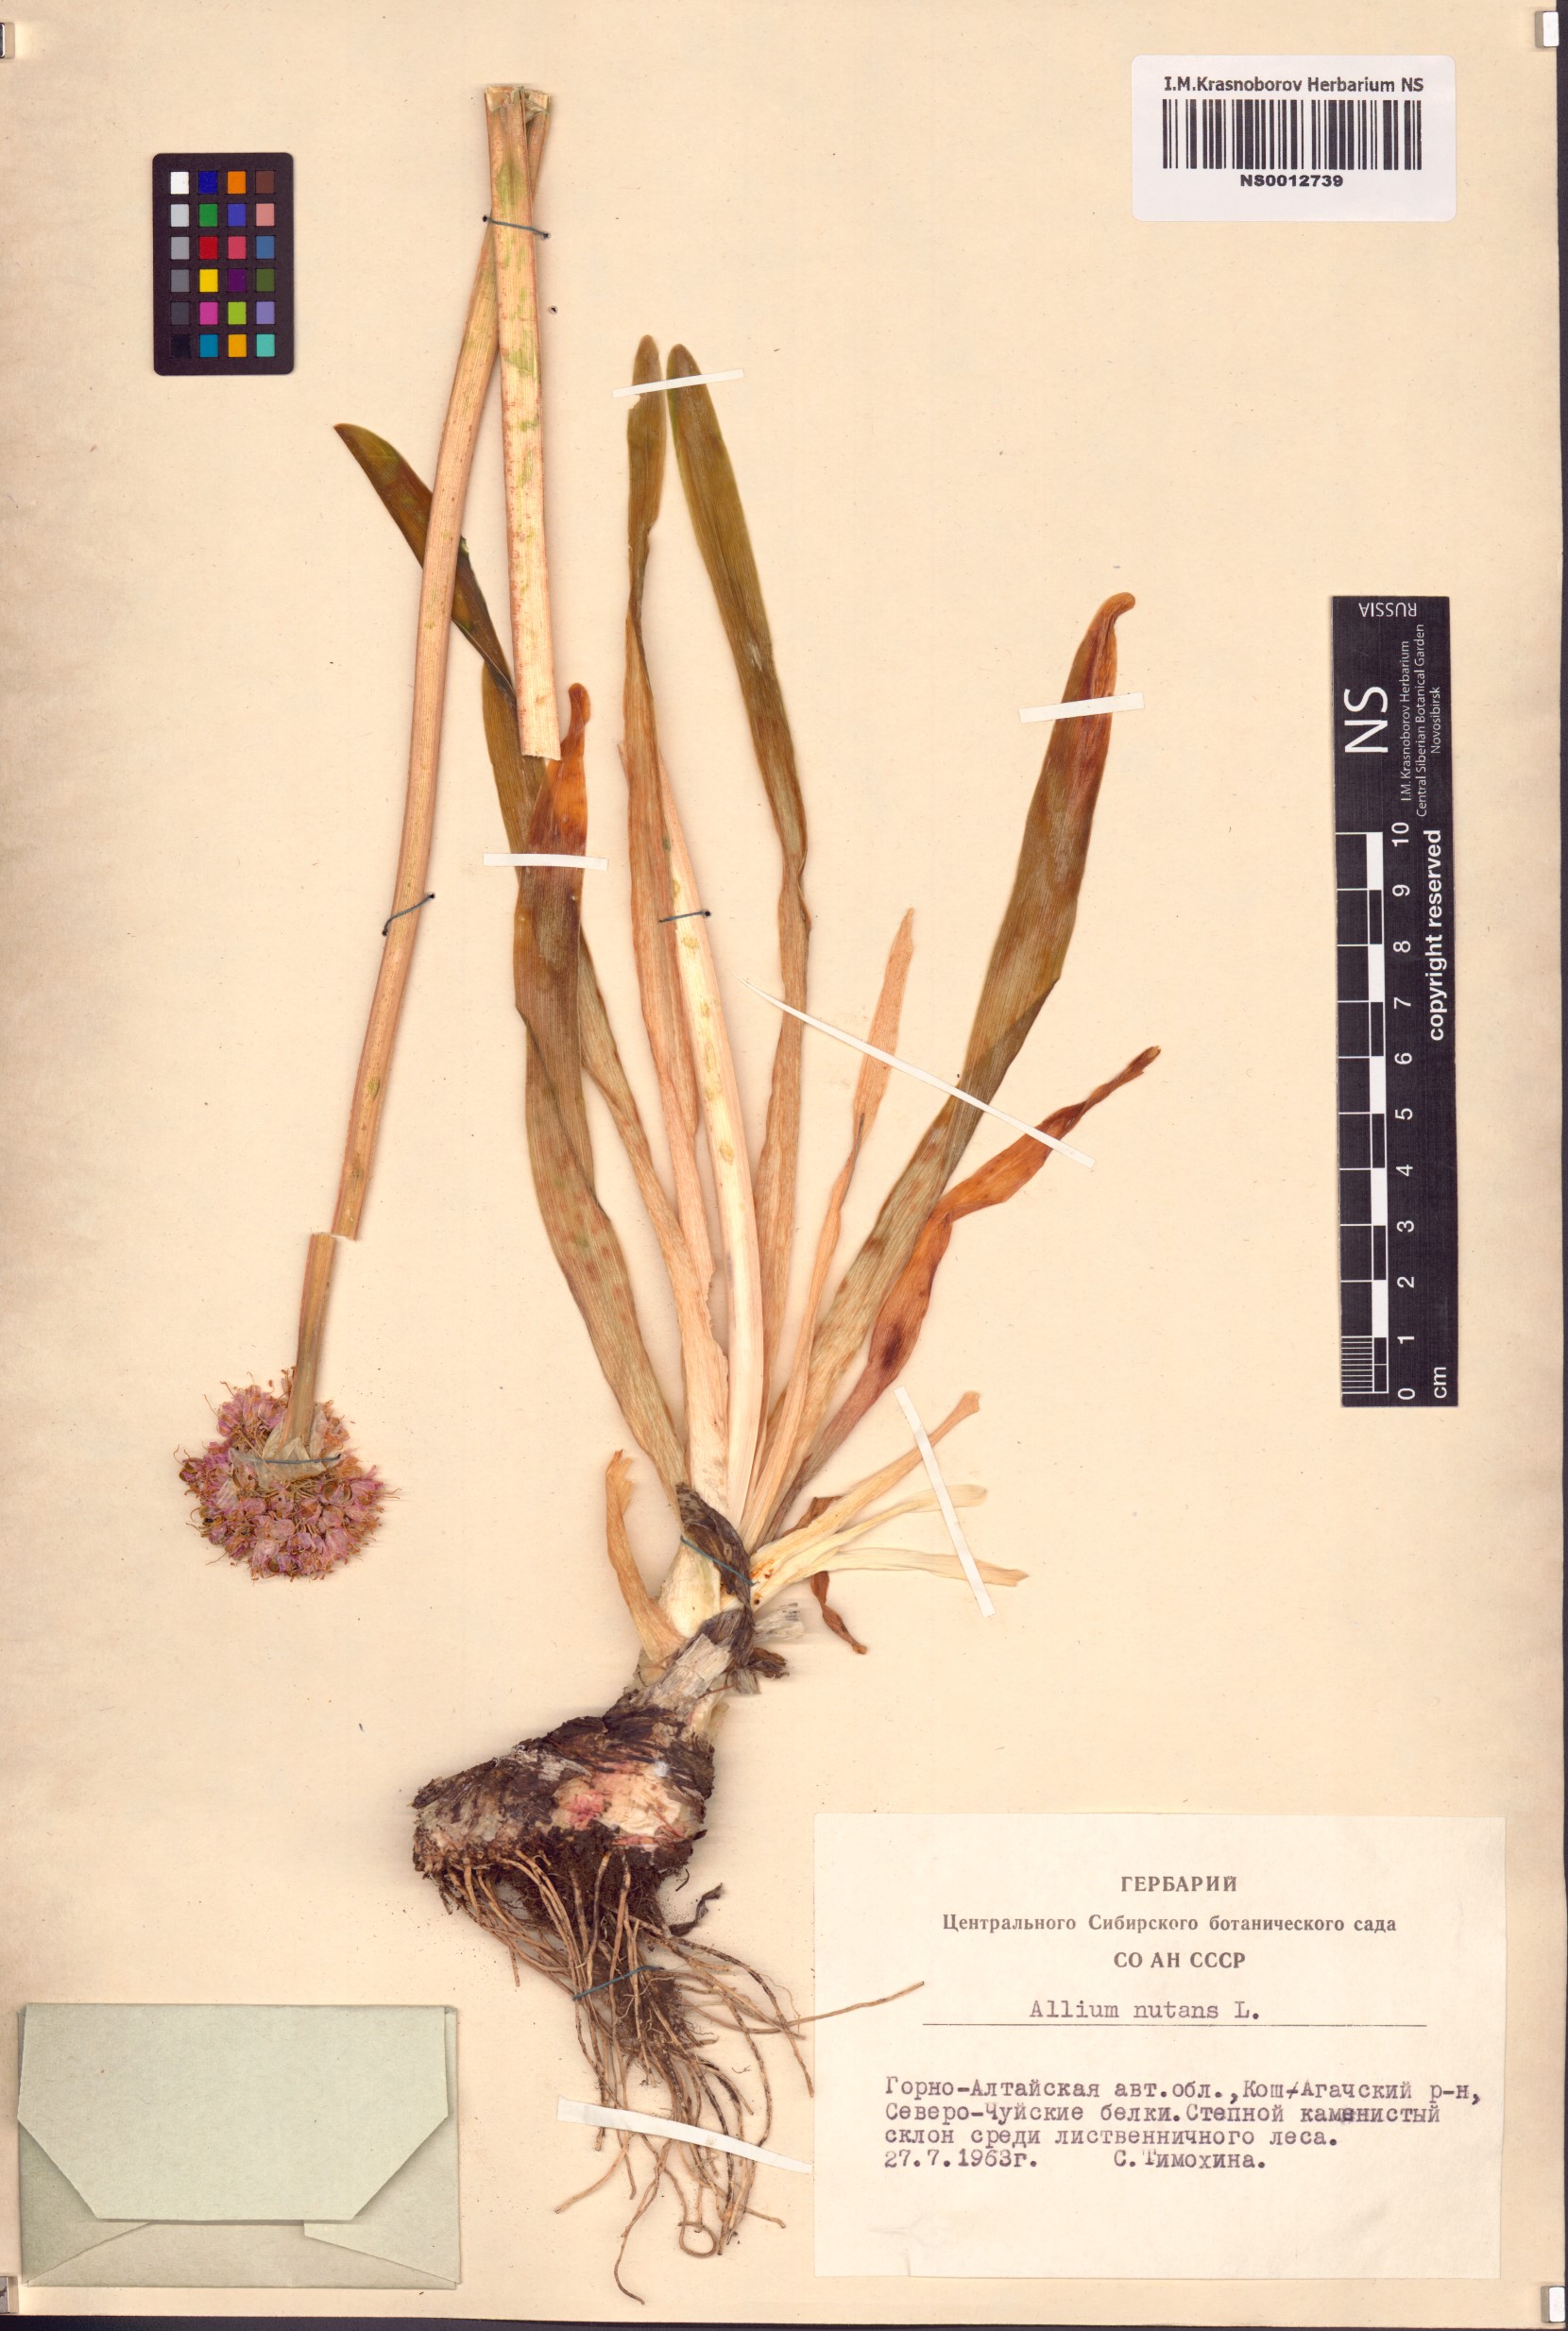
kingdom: Plantae
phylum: Tracheophyta
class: Liliopsida
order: Asparagales
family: Amaryllidaceae
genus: Allium
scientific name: Allium nutans
